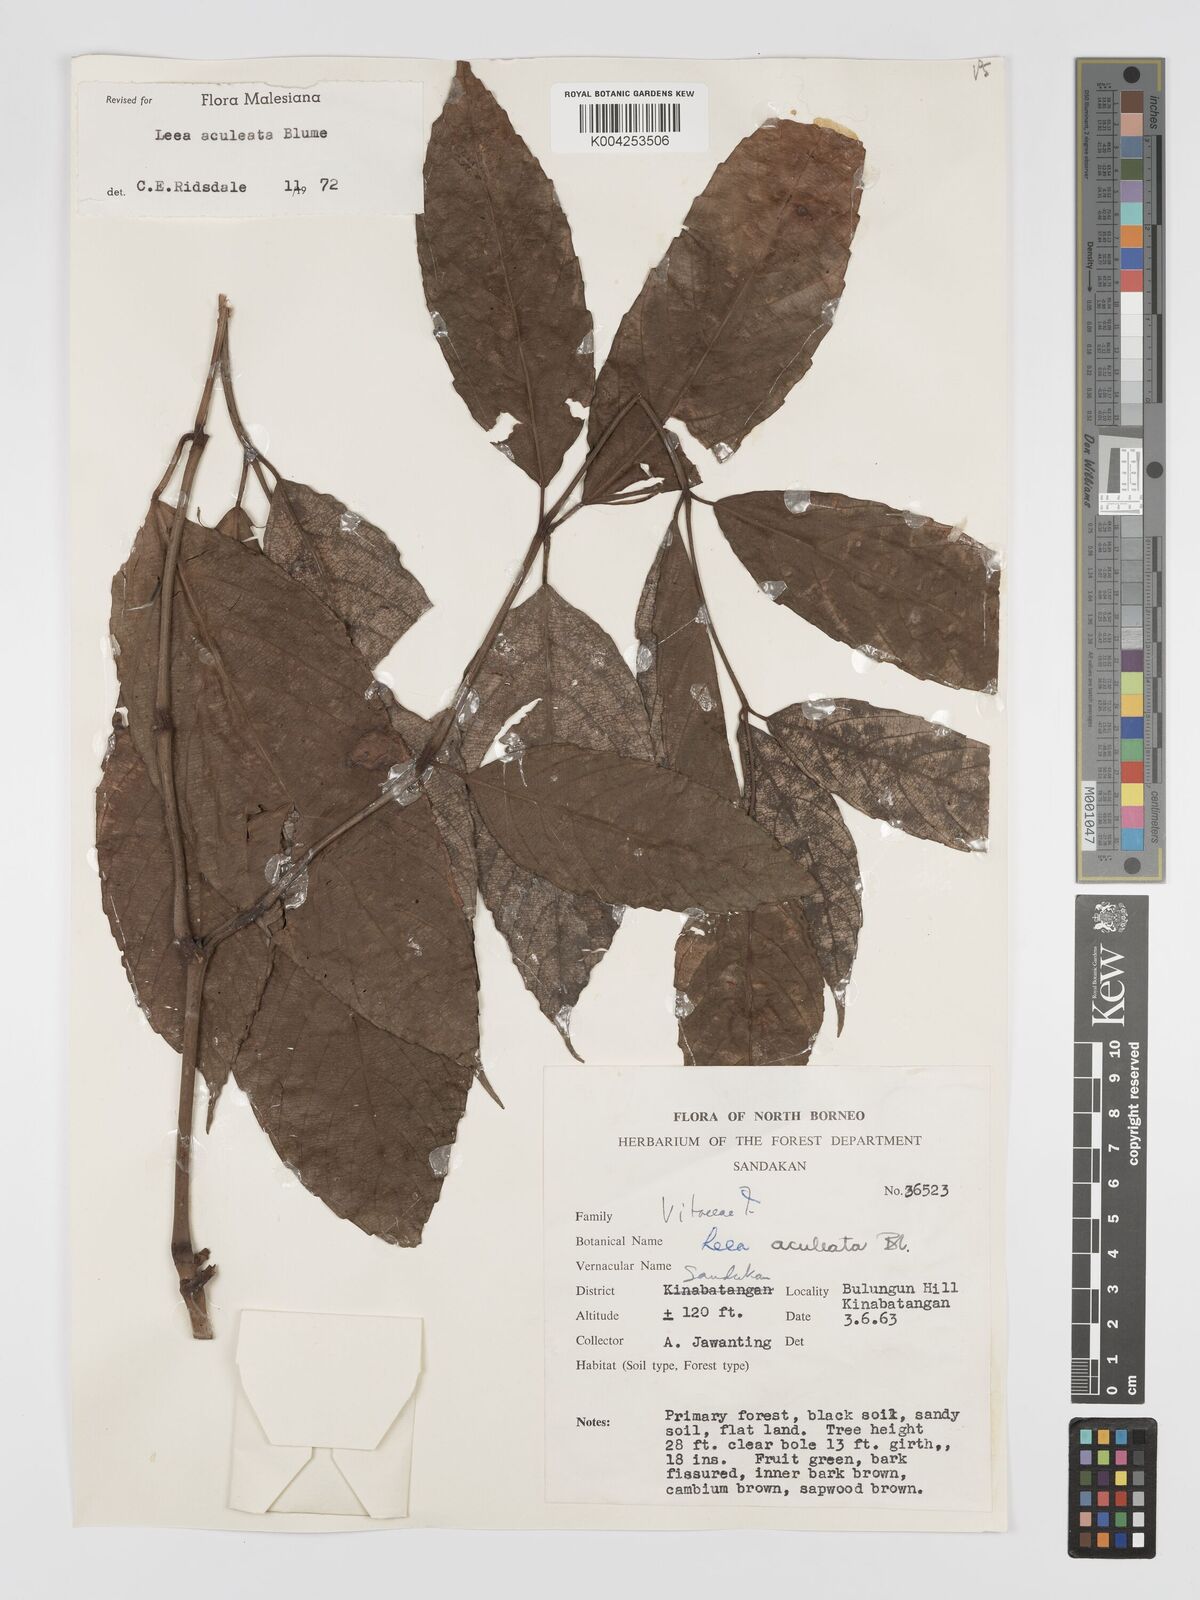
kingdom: Plantae
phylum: Tracheophyta
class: Magnoliopsida
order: Vitales
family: Vitaceae
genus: Leea
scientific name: Leea aculeata
